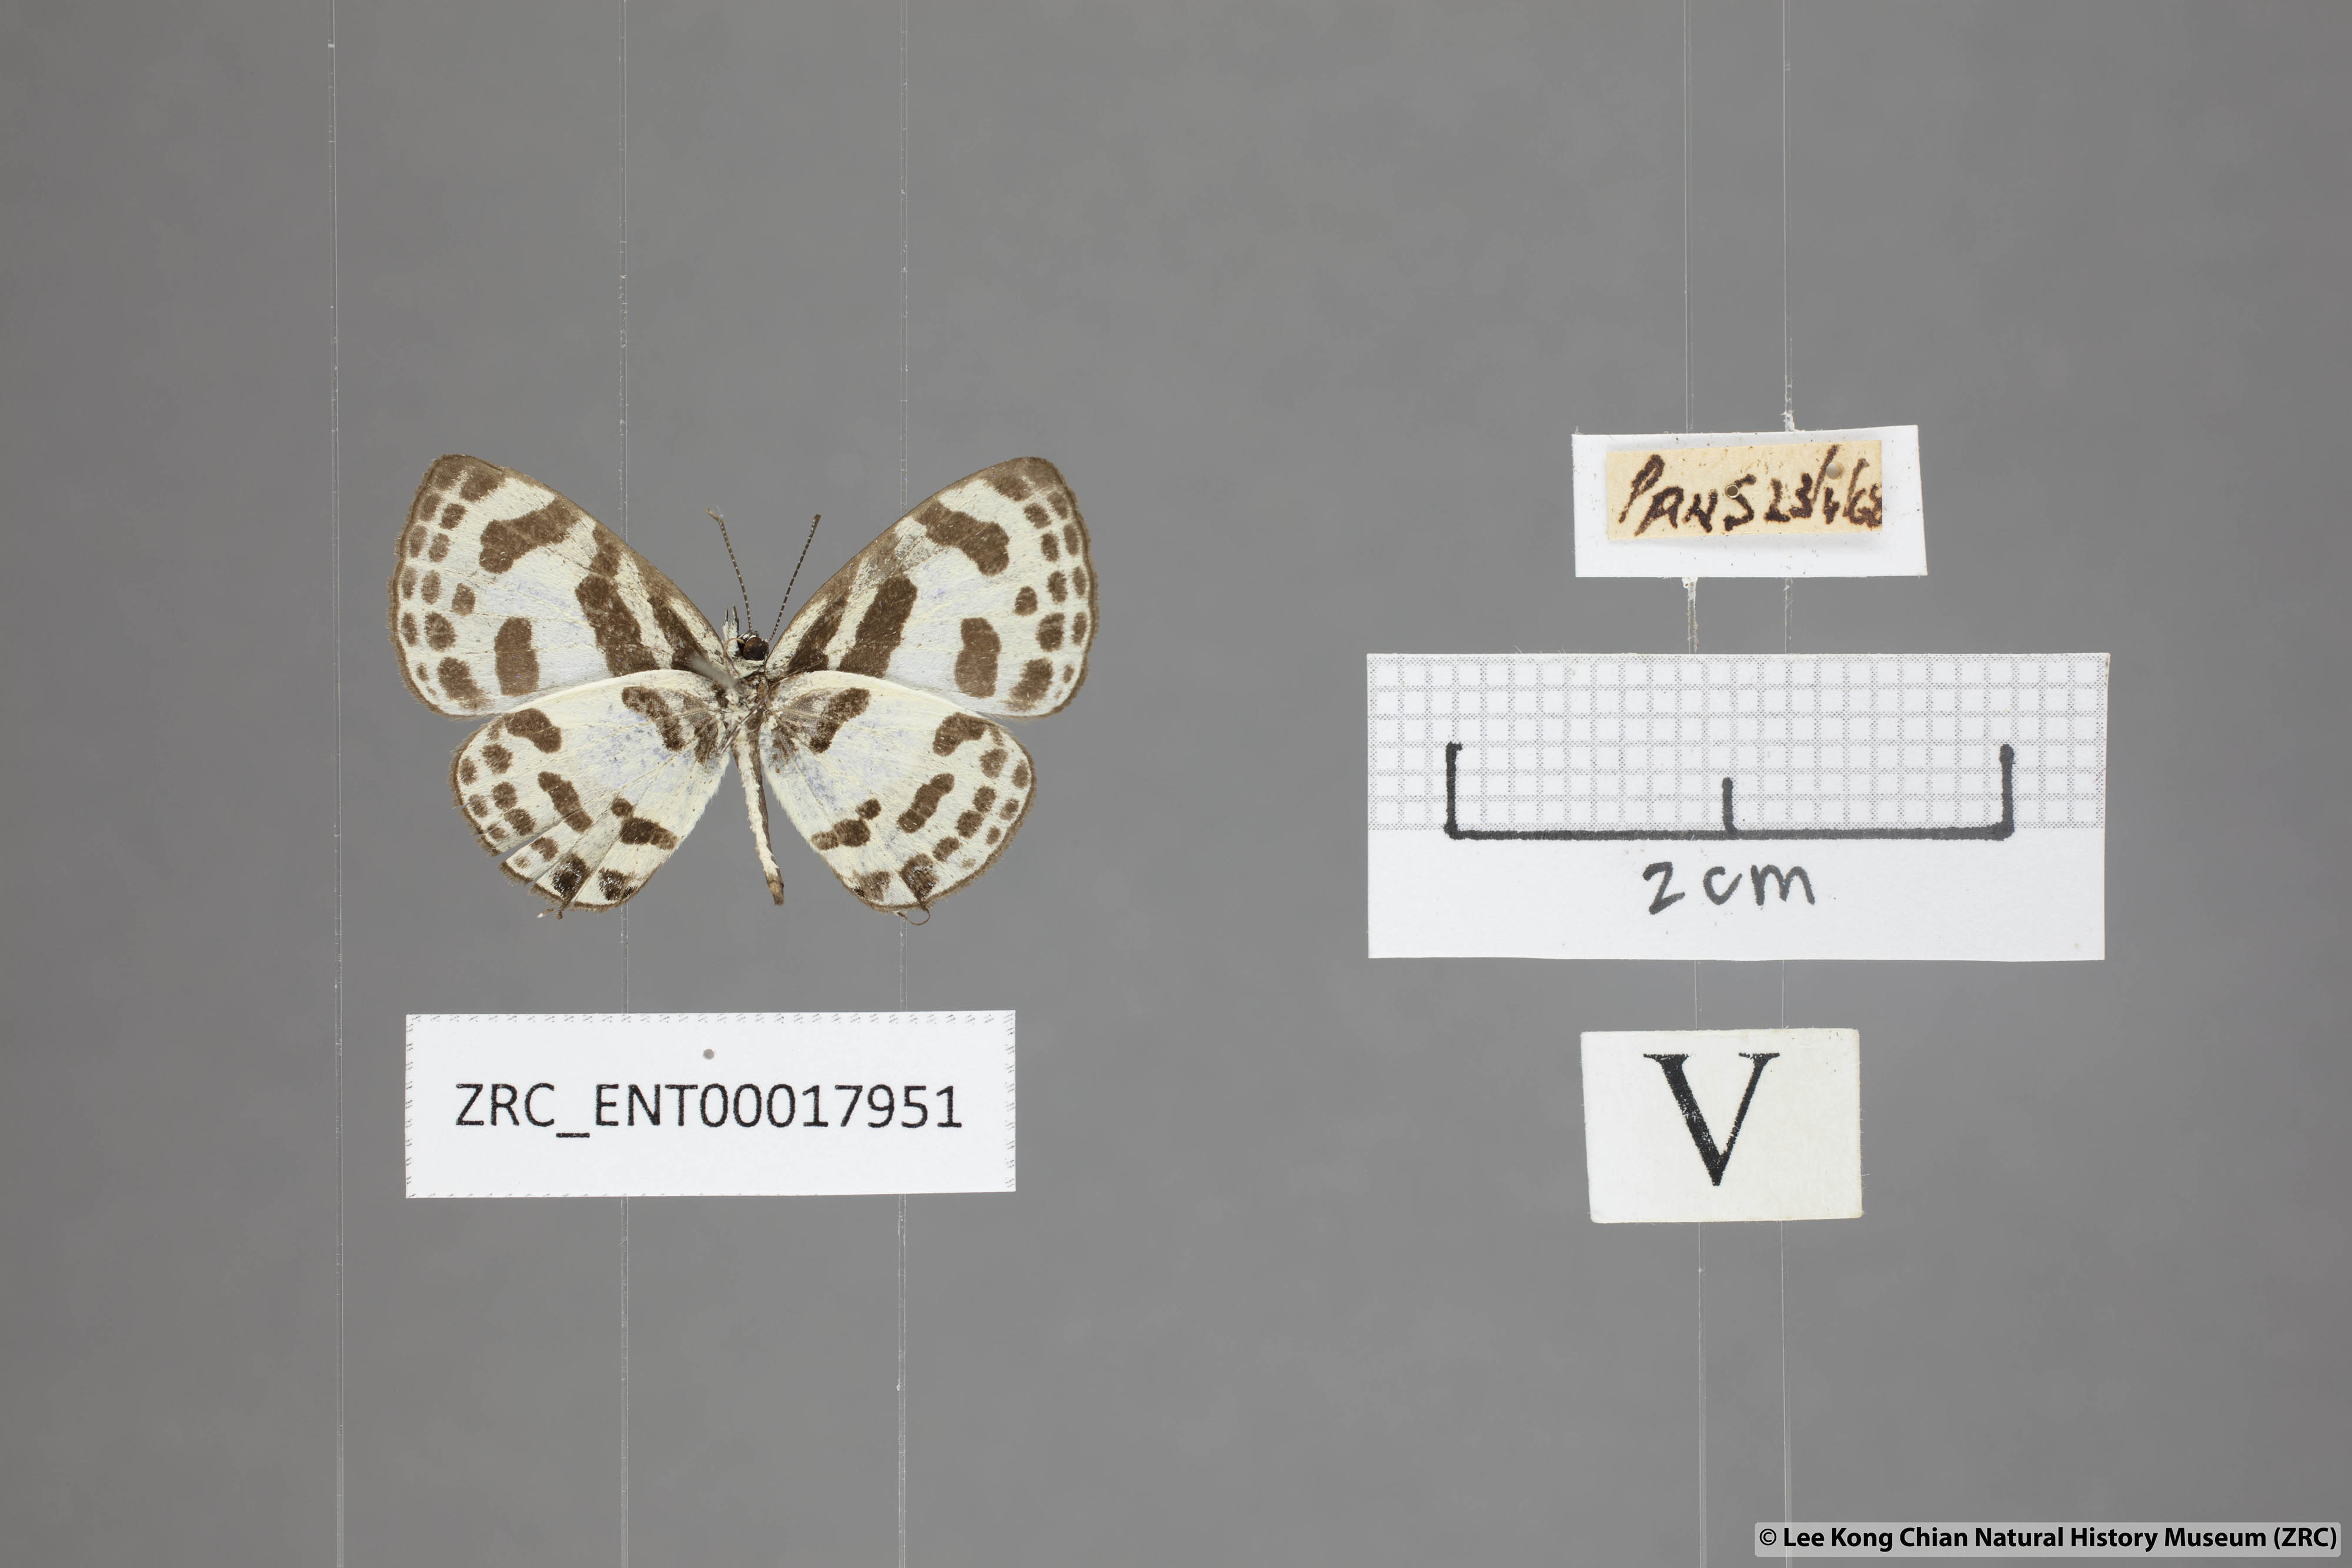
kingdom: Animalia
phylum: Arthropoda
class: Insecta
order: Lepidoptera
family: Lycaenidae
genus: Discolampa
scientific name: Discolampa ethion
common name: Banded blue pierrot
